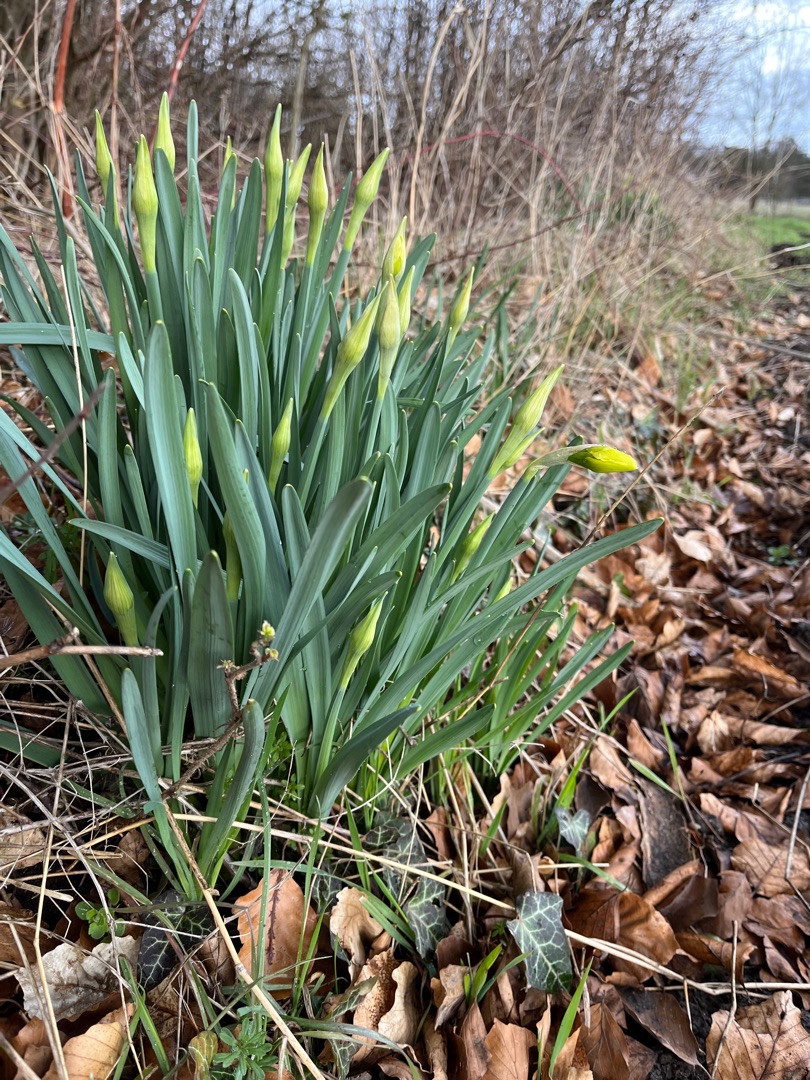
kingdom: Plantae
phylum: Tracheophyta
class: Liliopsida
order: Asparagales
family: Amaryllidaceae
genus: Narcissus
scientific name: Narcissus pseudonarcissus
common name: Påskelilje
